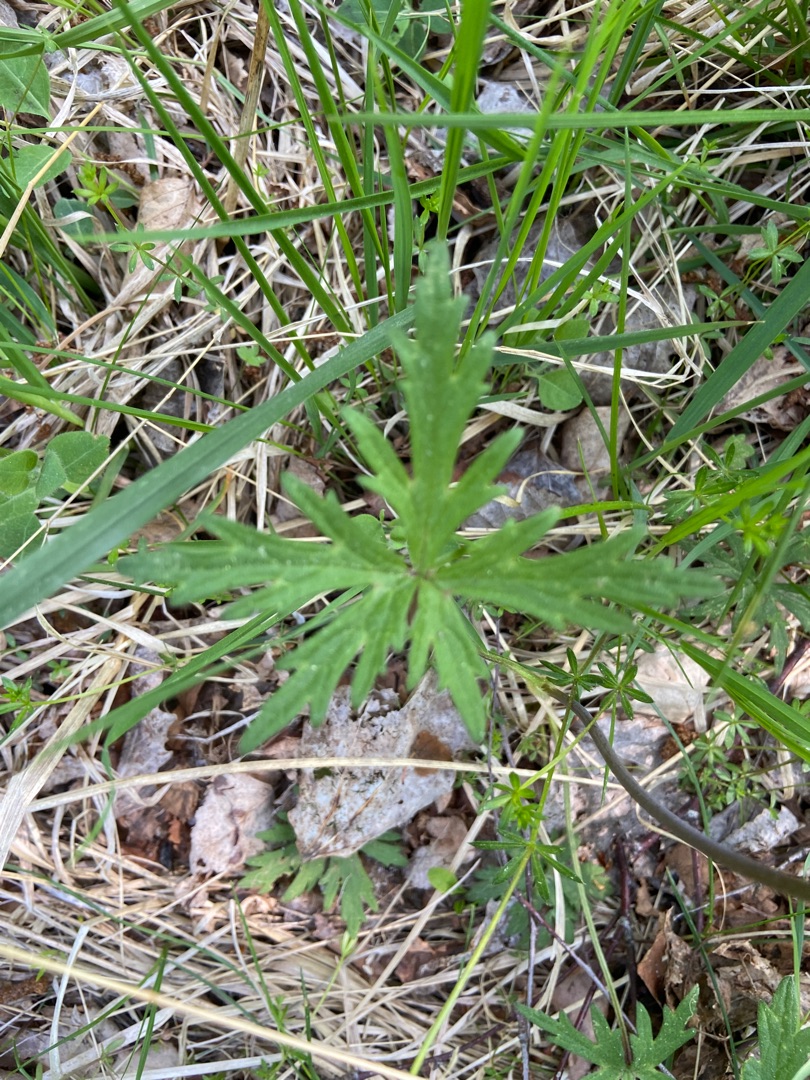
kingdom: Plantae
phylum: Tracheophyta
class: Magnoliopsida
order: Ranunculales
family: Ranunculaceae
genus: Ranunculus
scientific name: Ranunculus acris
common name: Bidende ranunkel
